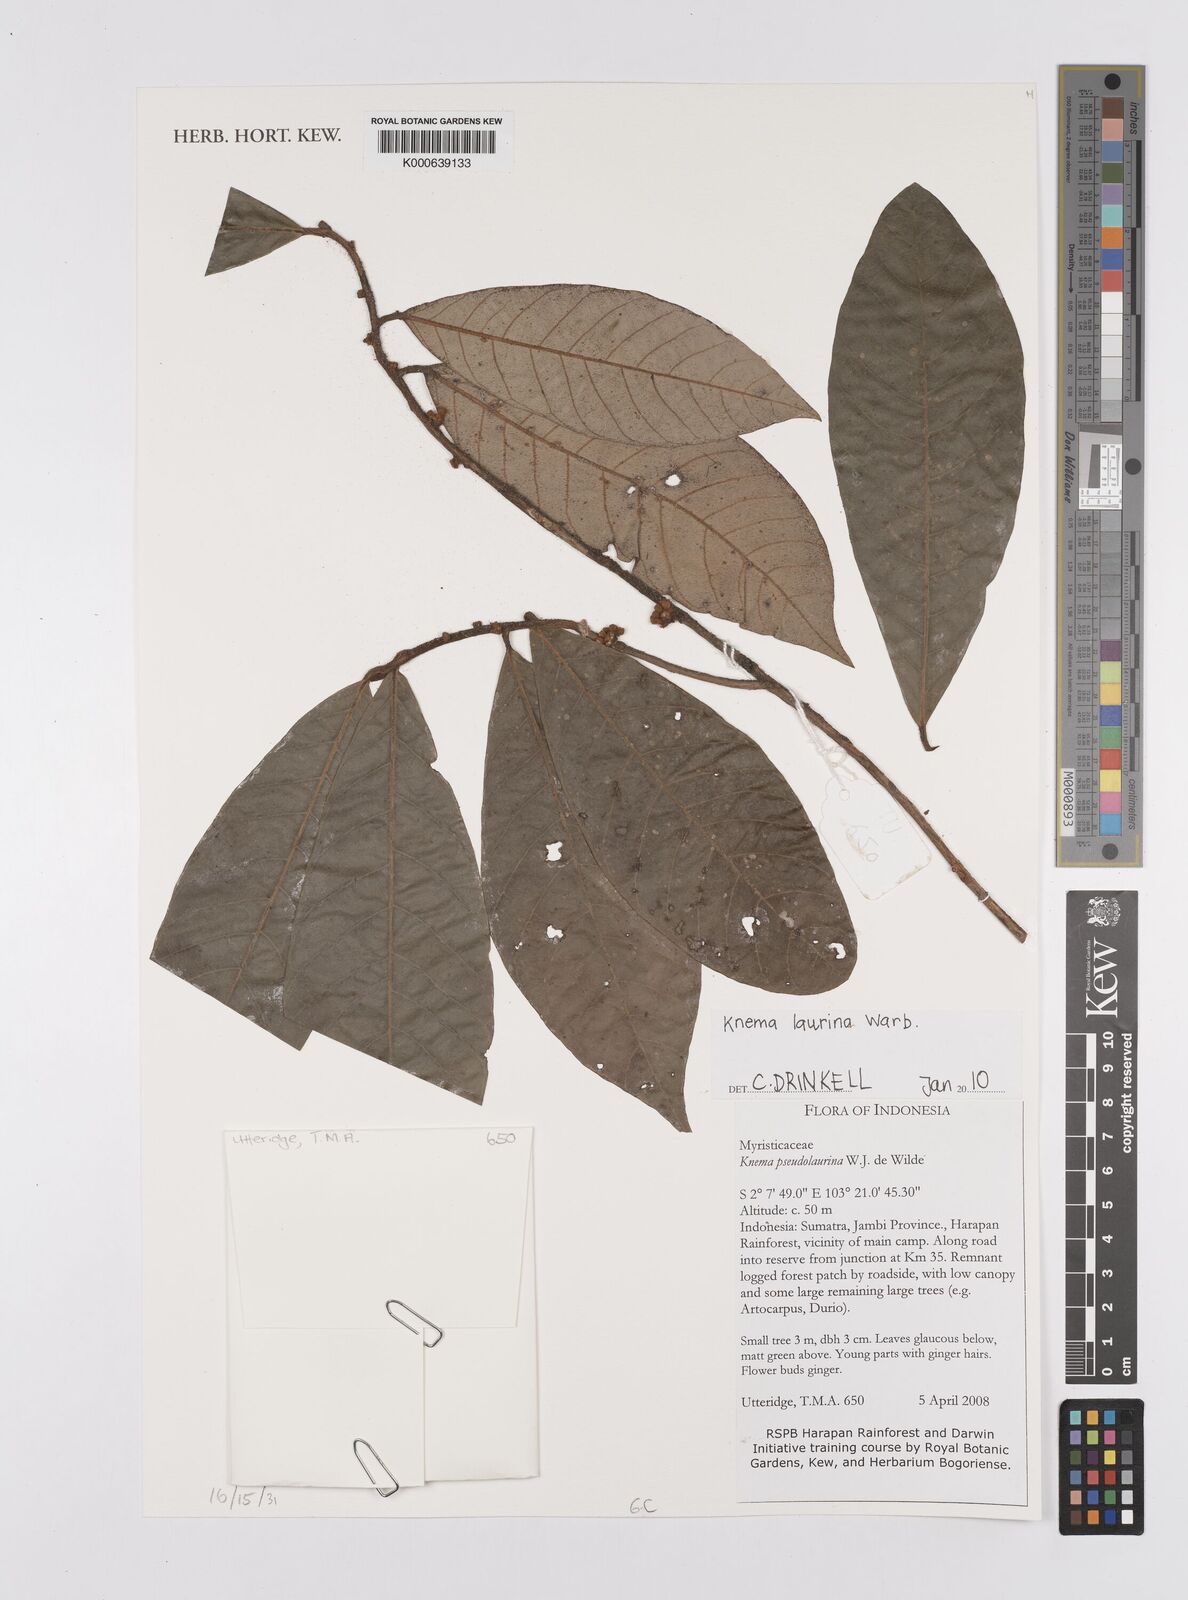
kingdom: Plantae
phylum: Tracheophyta
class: Magnoliopsida
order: Magnoliales
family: Myristicaceae
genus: Knema
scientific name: Knema laurina
